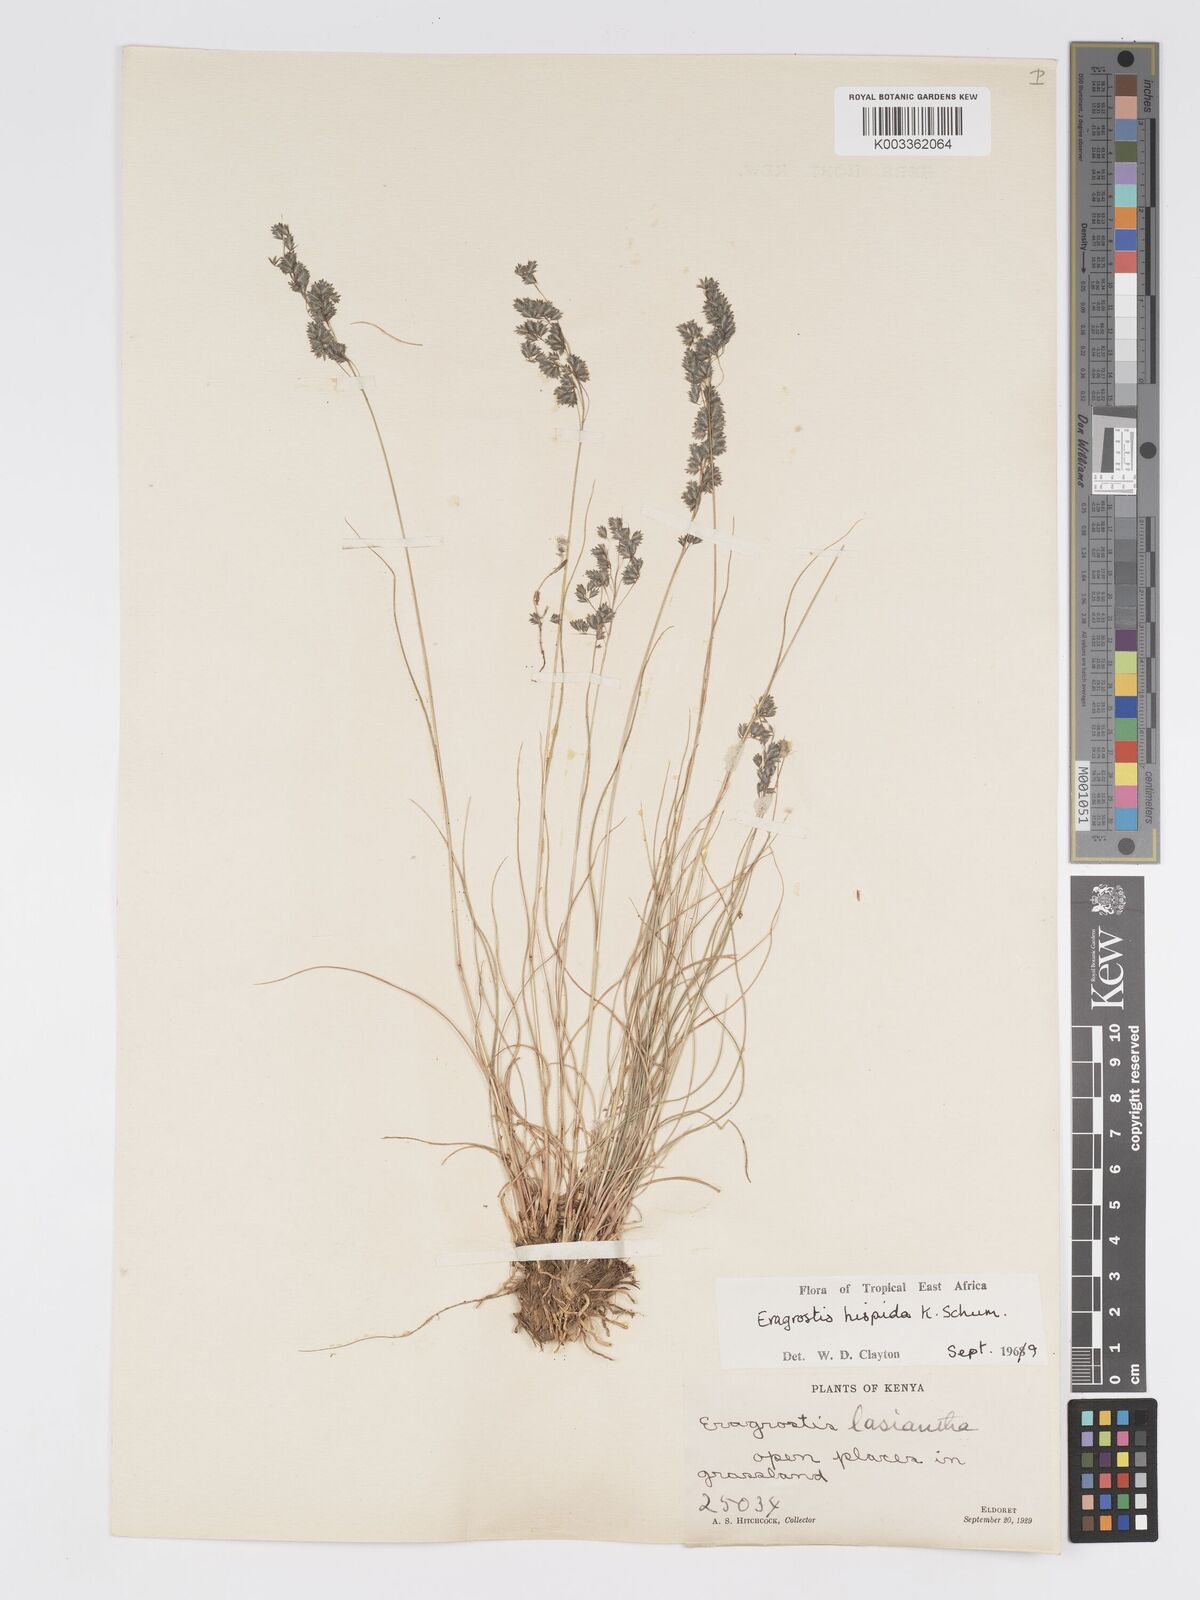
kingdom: Plantae
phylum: Tracheophyta
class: Liliopsida
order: Poales
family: Poaceae
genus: Eragrostis
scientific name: Eragrostis hispida
